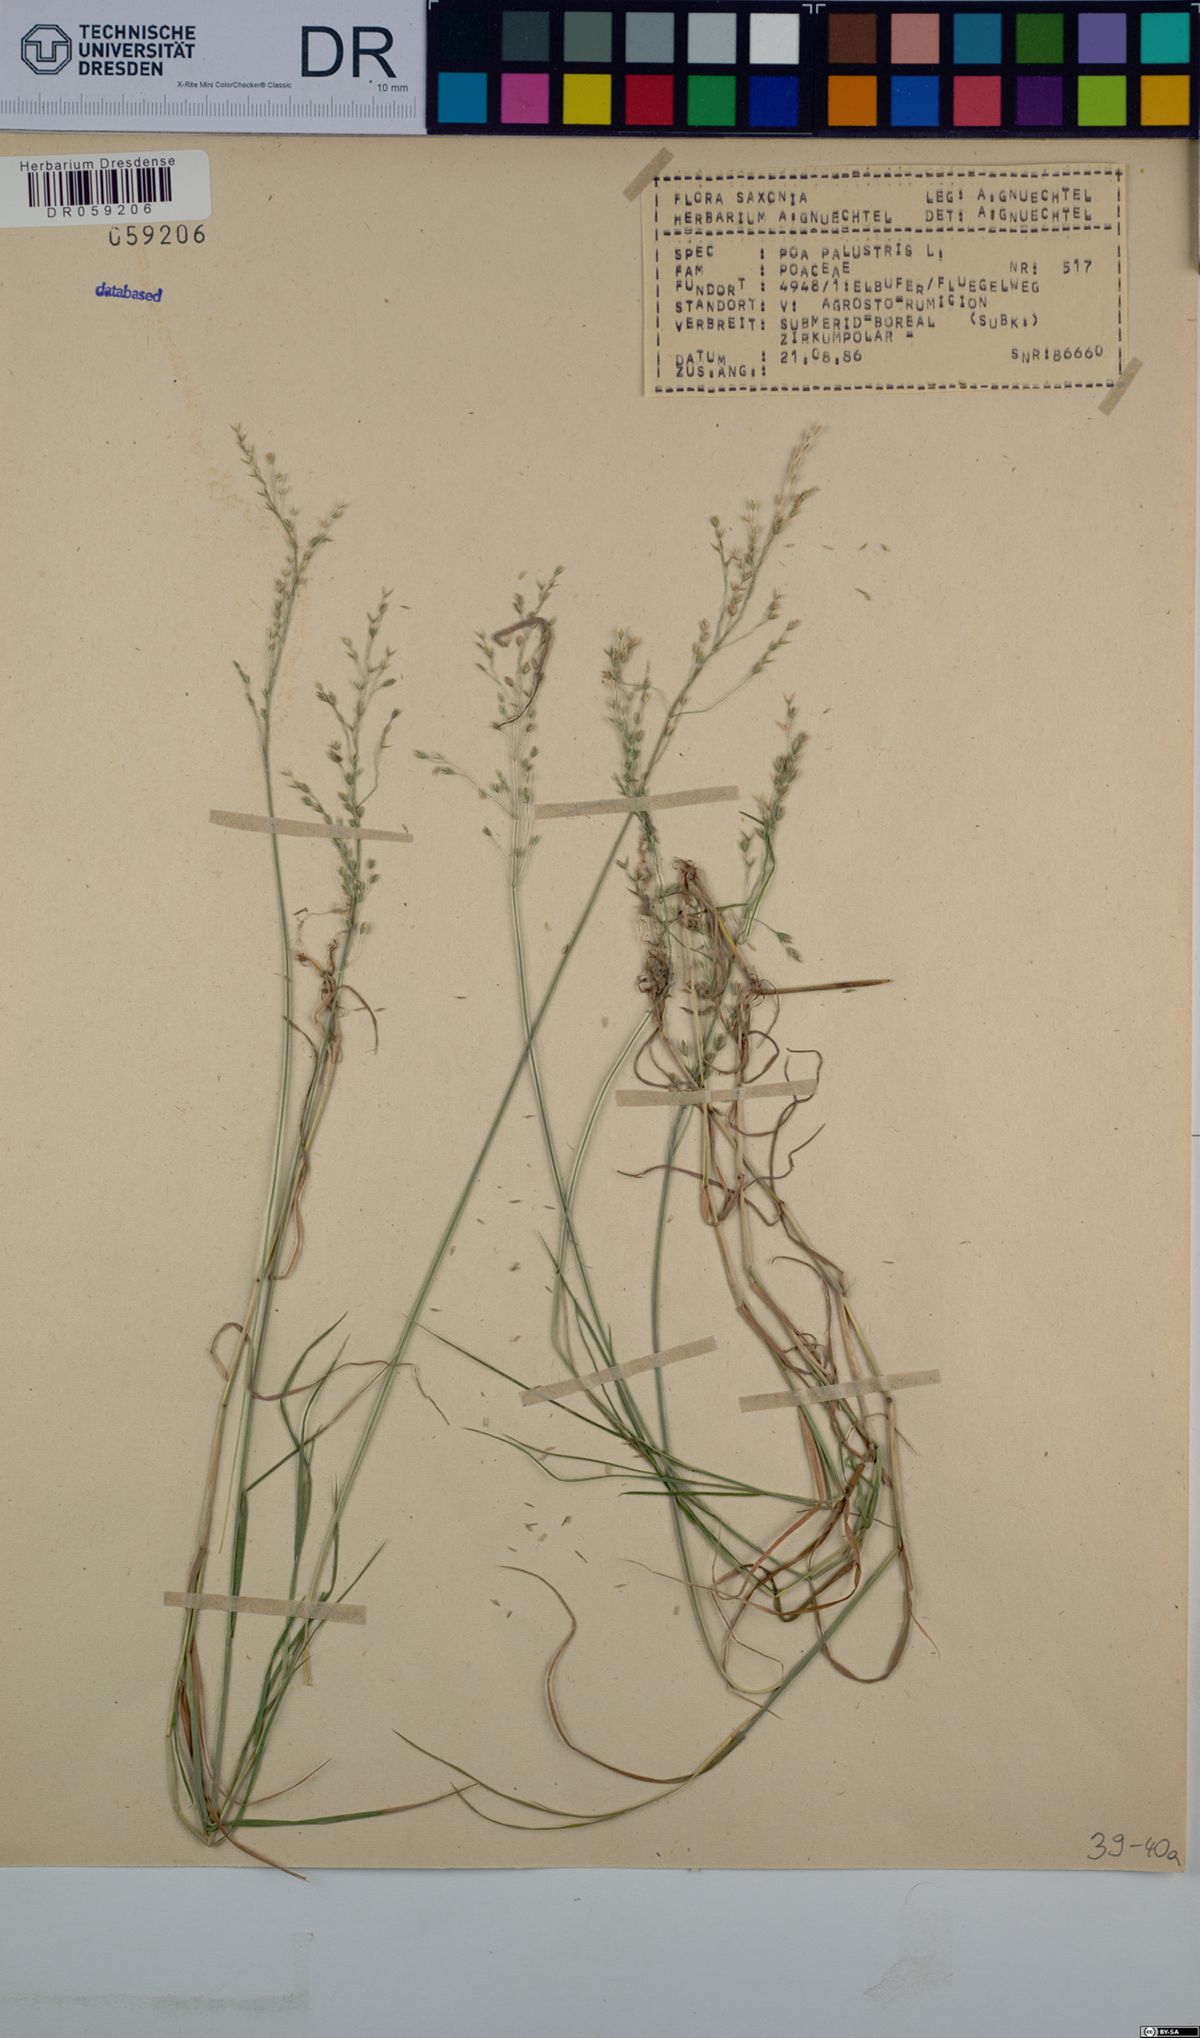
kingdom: Plantae
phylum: Tracheophyta
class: Liliopsida
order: Poales
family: Poaceae
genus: Poa
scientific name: Poa palustris
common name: Swamp meadow-grass
